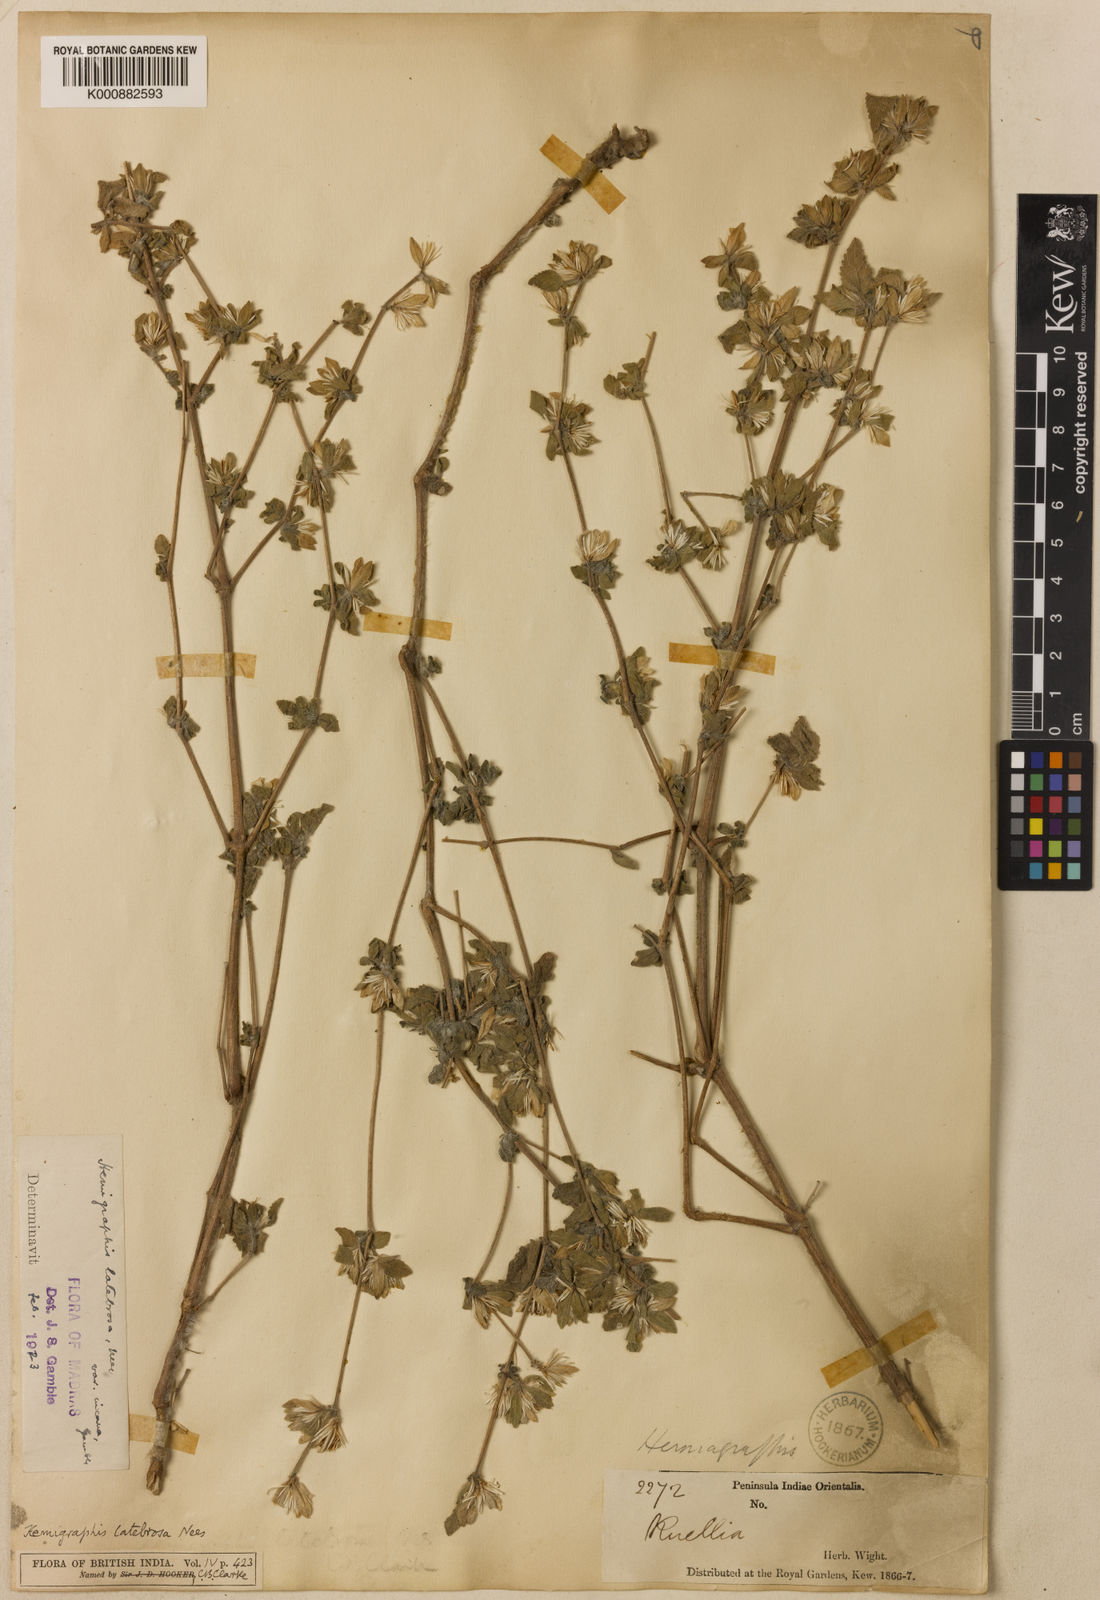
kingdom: Plantae
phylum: Tracheophyta
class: Magnoliopsida
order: Lamiales
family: Acanthaceae
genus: Strobilanthes
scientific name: Strobilanthes pavala
